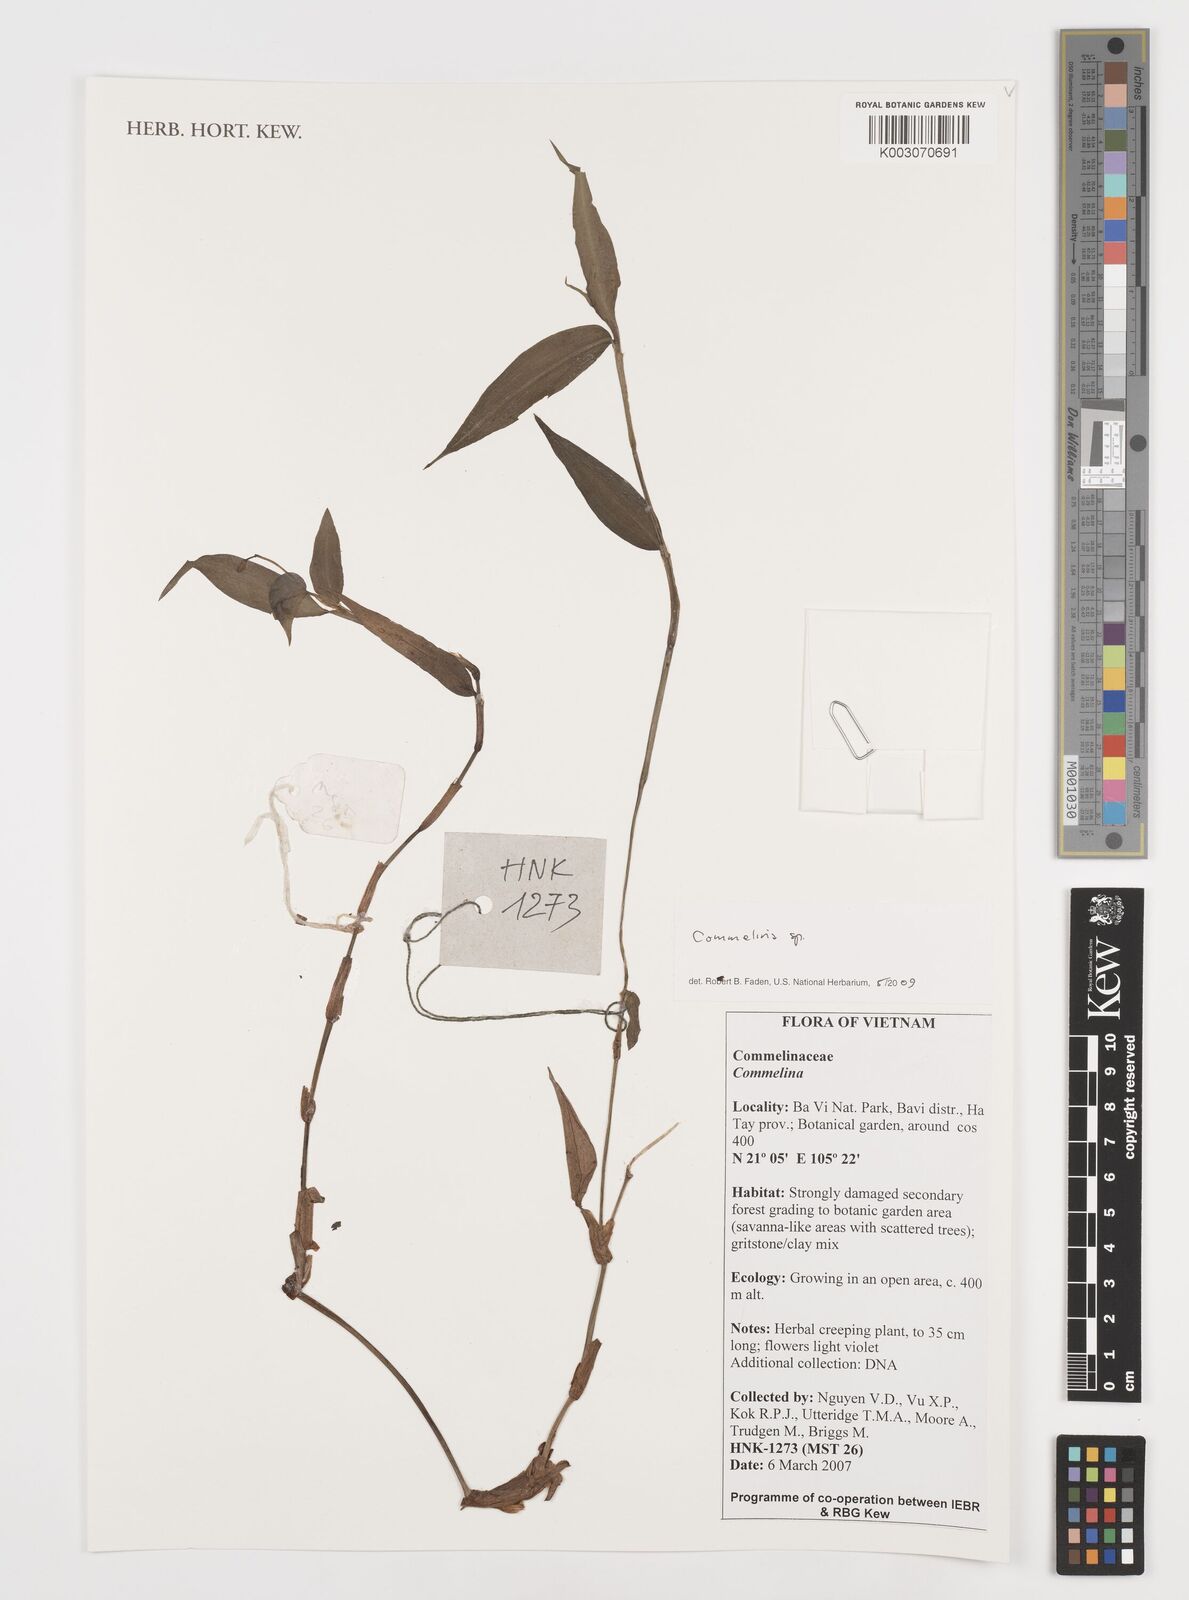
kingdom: Plantae
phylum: Tracheophyta
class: Liliopsida
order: Commelinales
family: Commelinaceae
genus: Commelina
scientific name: Commelina
